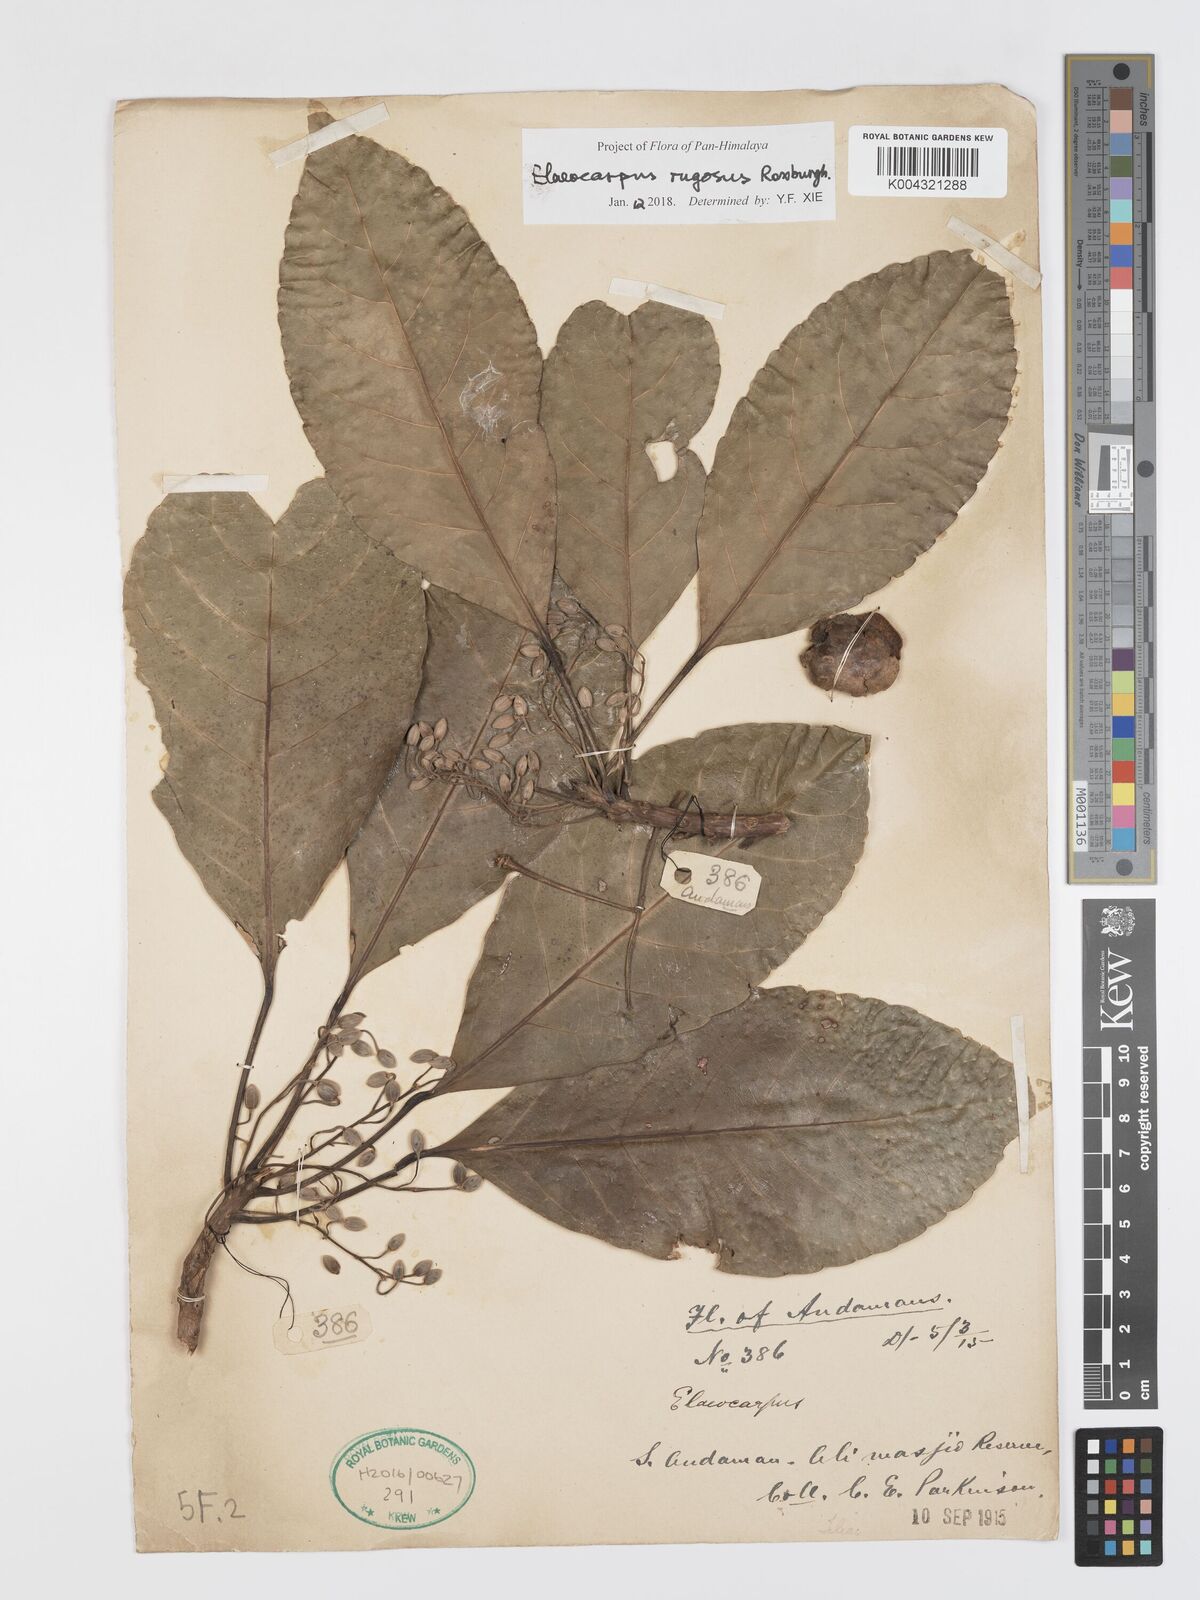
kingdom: Plantae
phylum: Tracheophyta
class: Magnoliopsida
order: Oxalidales
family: Elaeocarpaceae
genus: Elaeocarpus
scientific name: Elaeocarpus rugosus
